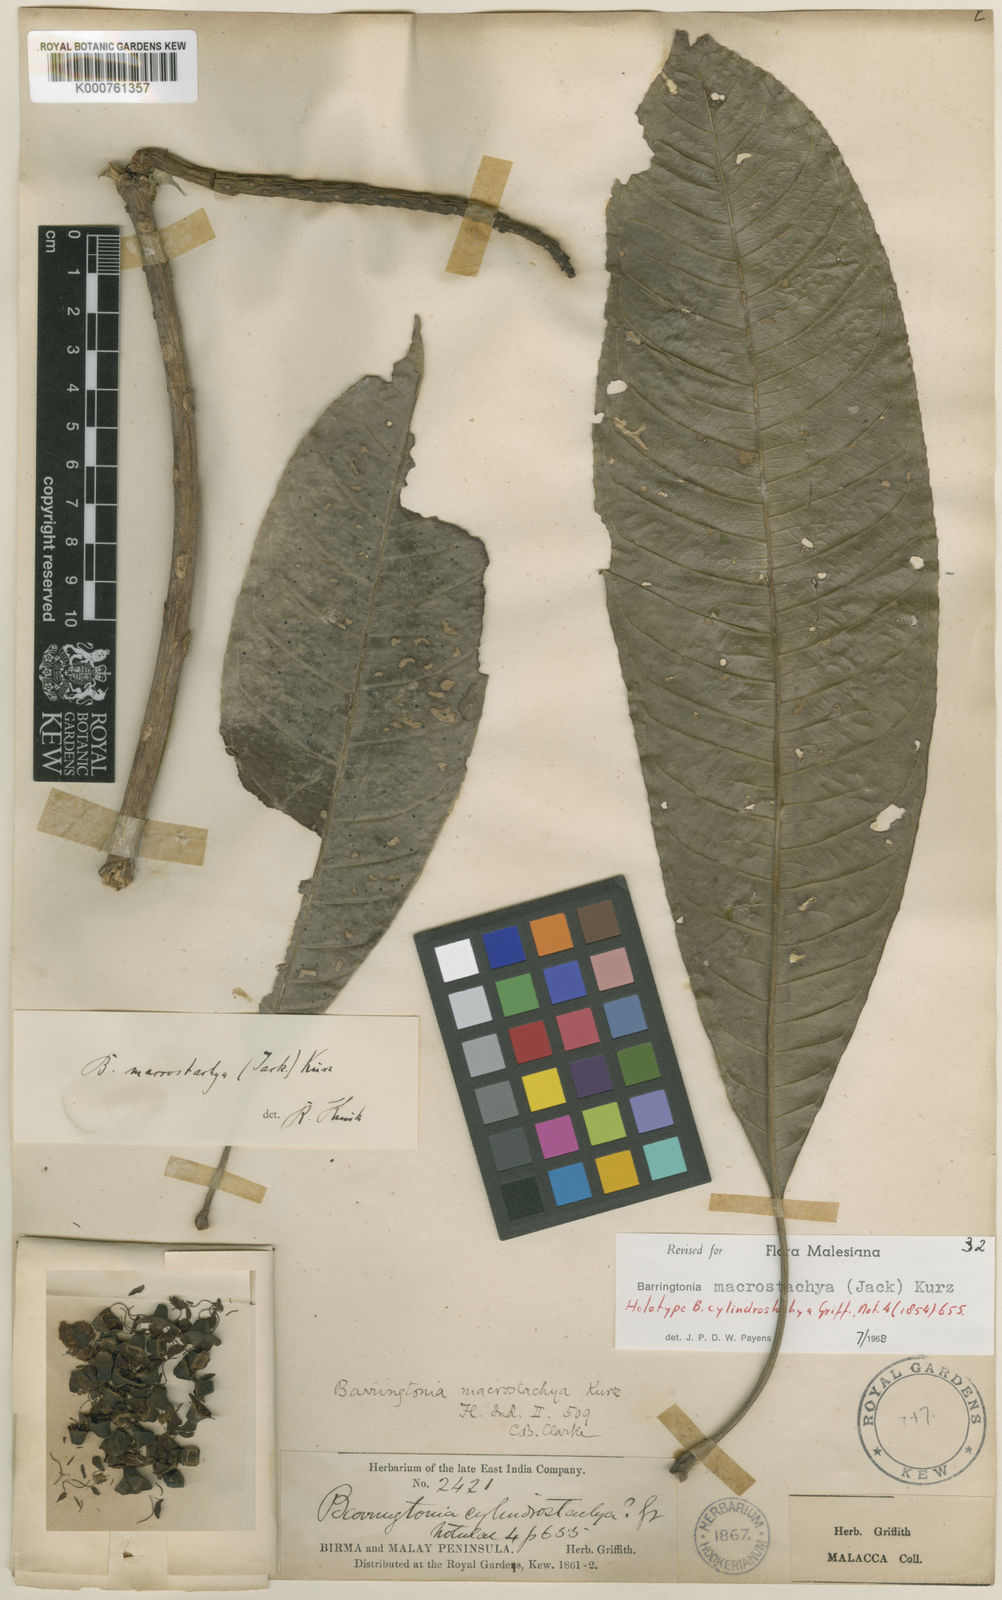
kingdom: Plantae
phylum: Tracheophyta
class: Magnoliopsida
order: Ericales
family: Lecythidaceae
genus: Barringtonia
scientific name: Barringtonia macrostachya
